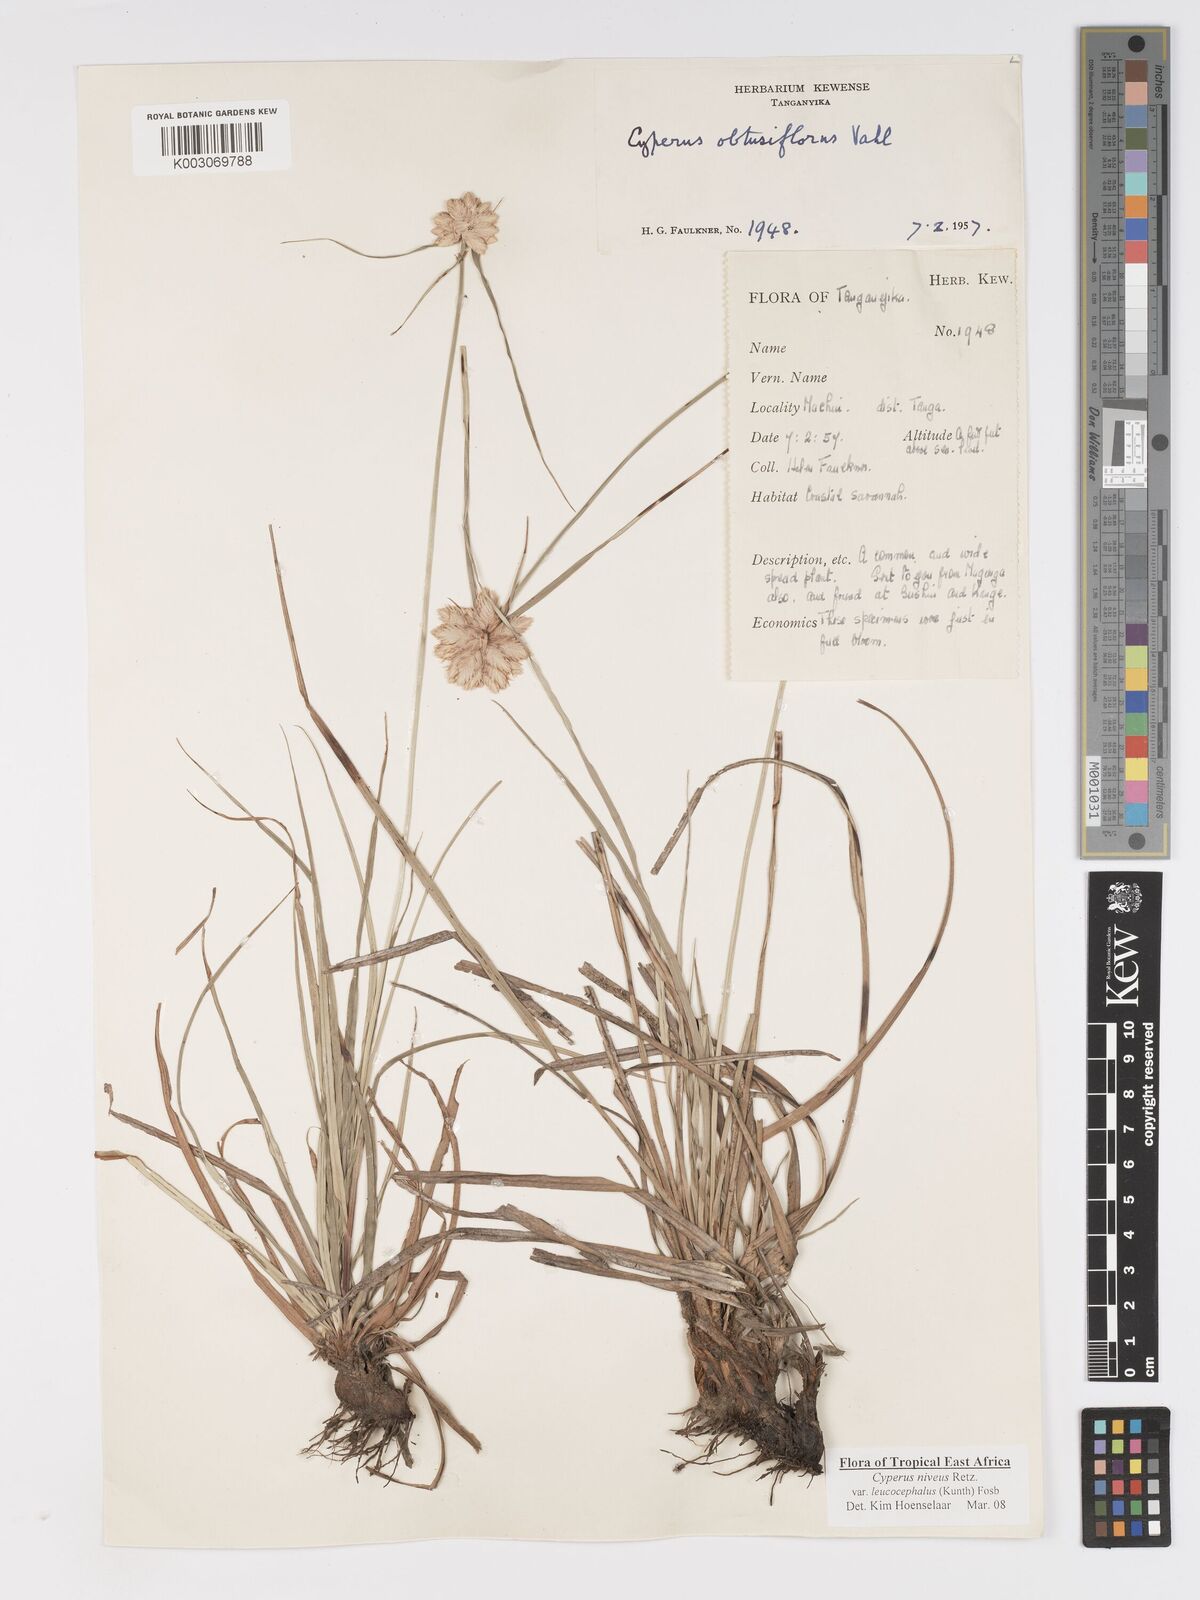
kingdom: Plantae
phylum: Tracheophyta
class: Liliopsida
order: Poales
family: Cyperaceae
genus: Cyperus
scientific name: Cyperus niveus
